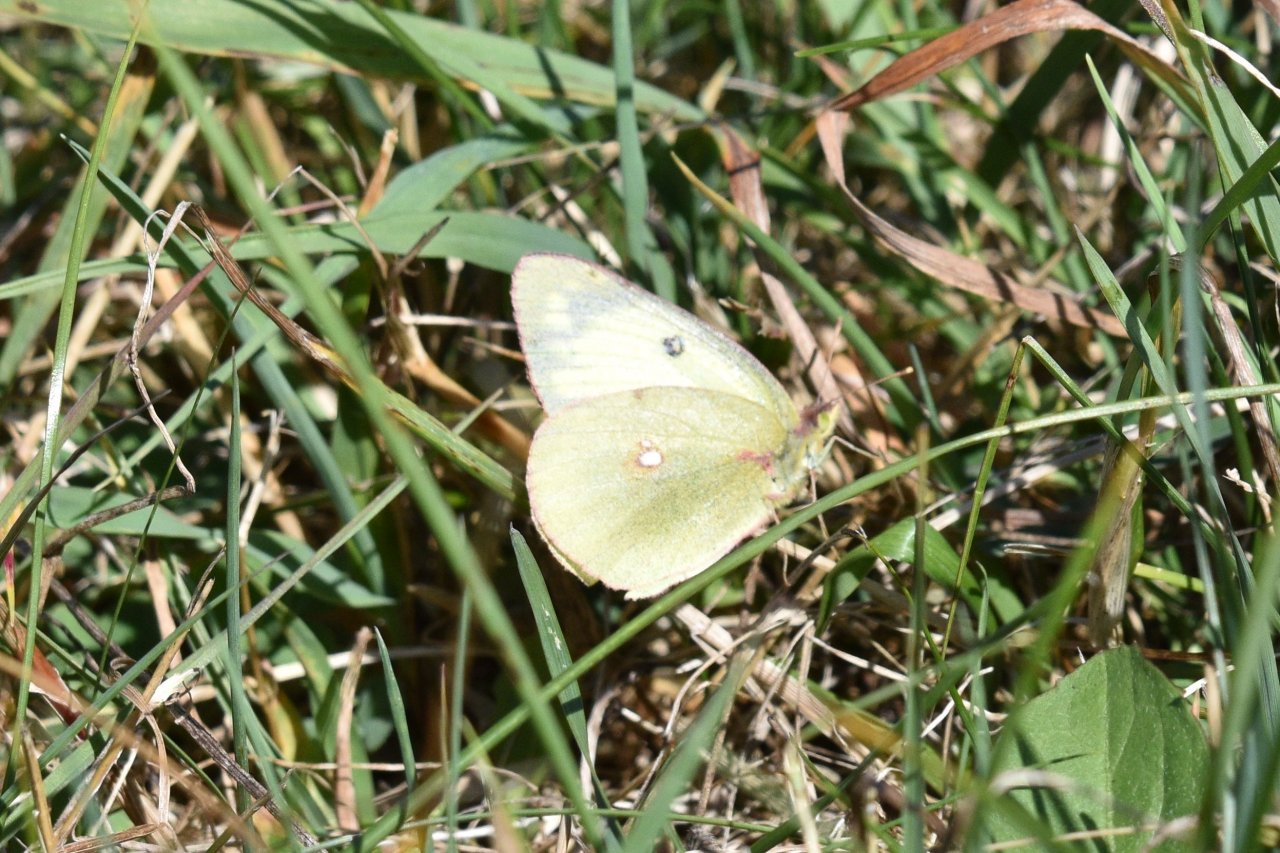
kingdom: Animalia
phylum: Arthropoda
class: Insecta
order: Lepidoptera
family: Pieridae
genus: Colias
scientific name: Colias philodice
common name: Clouded Sulphur
